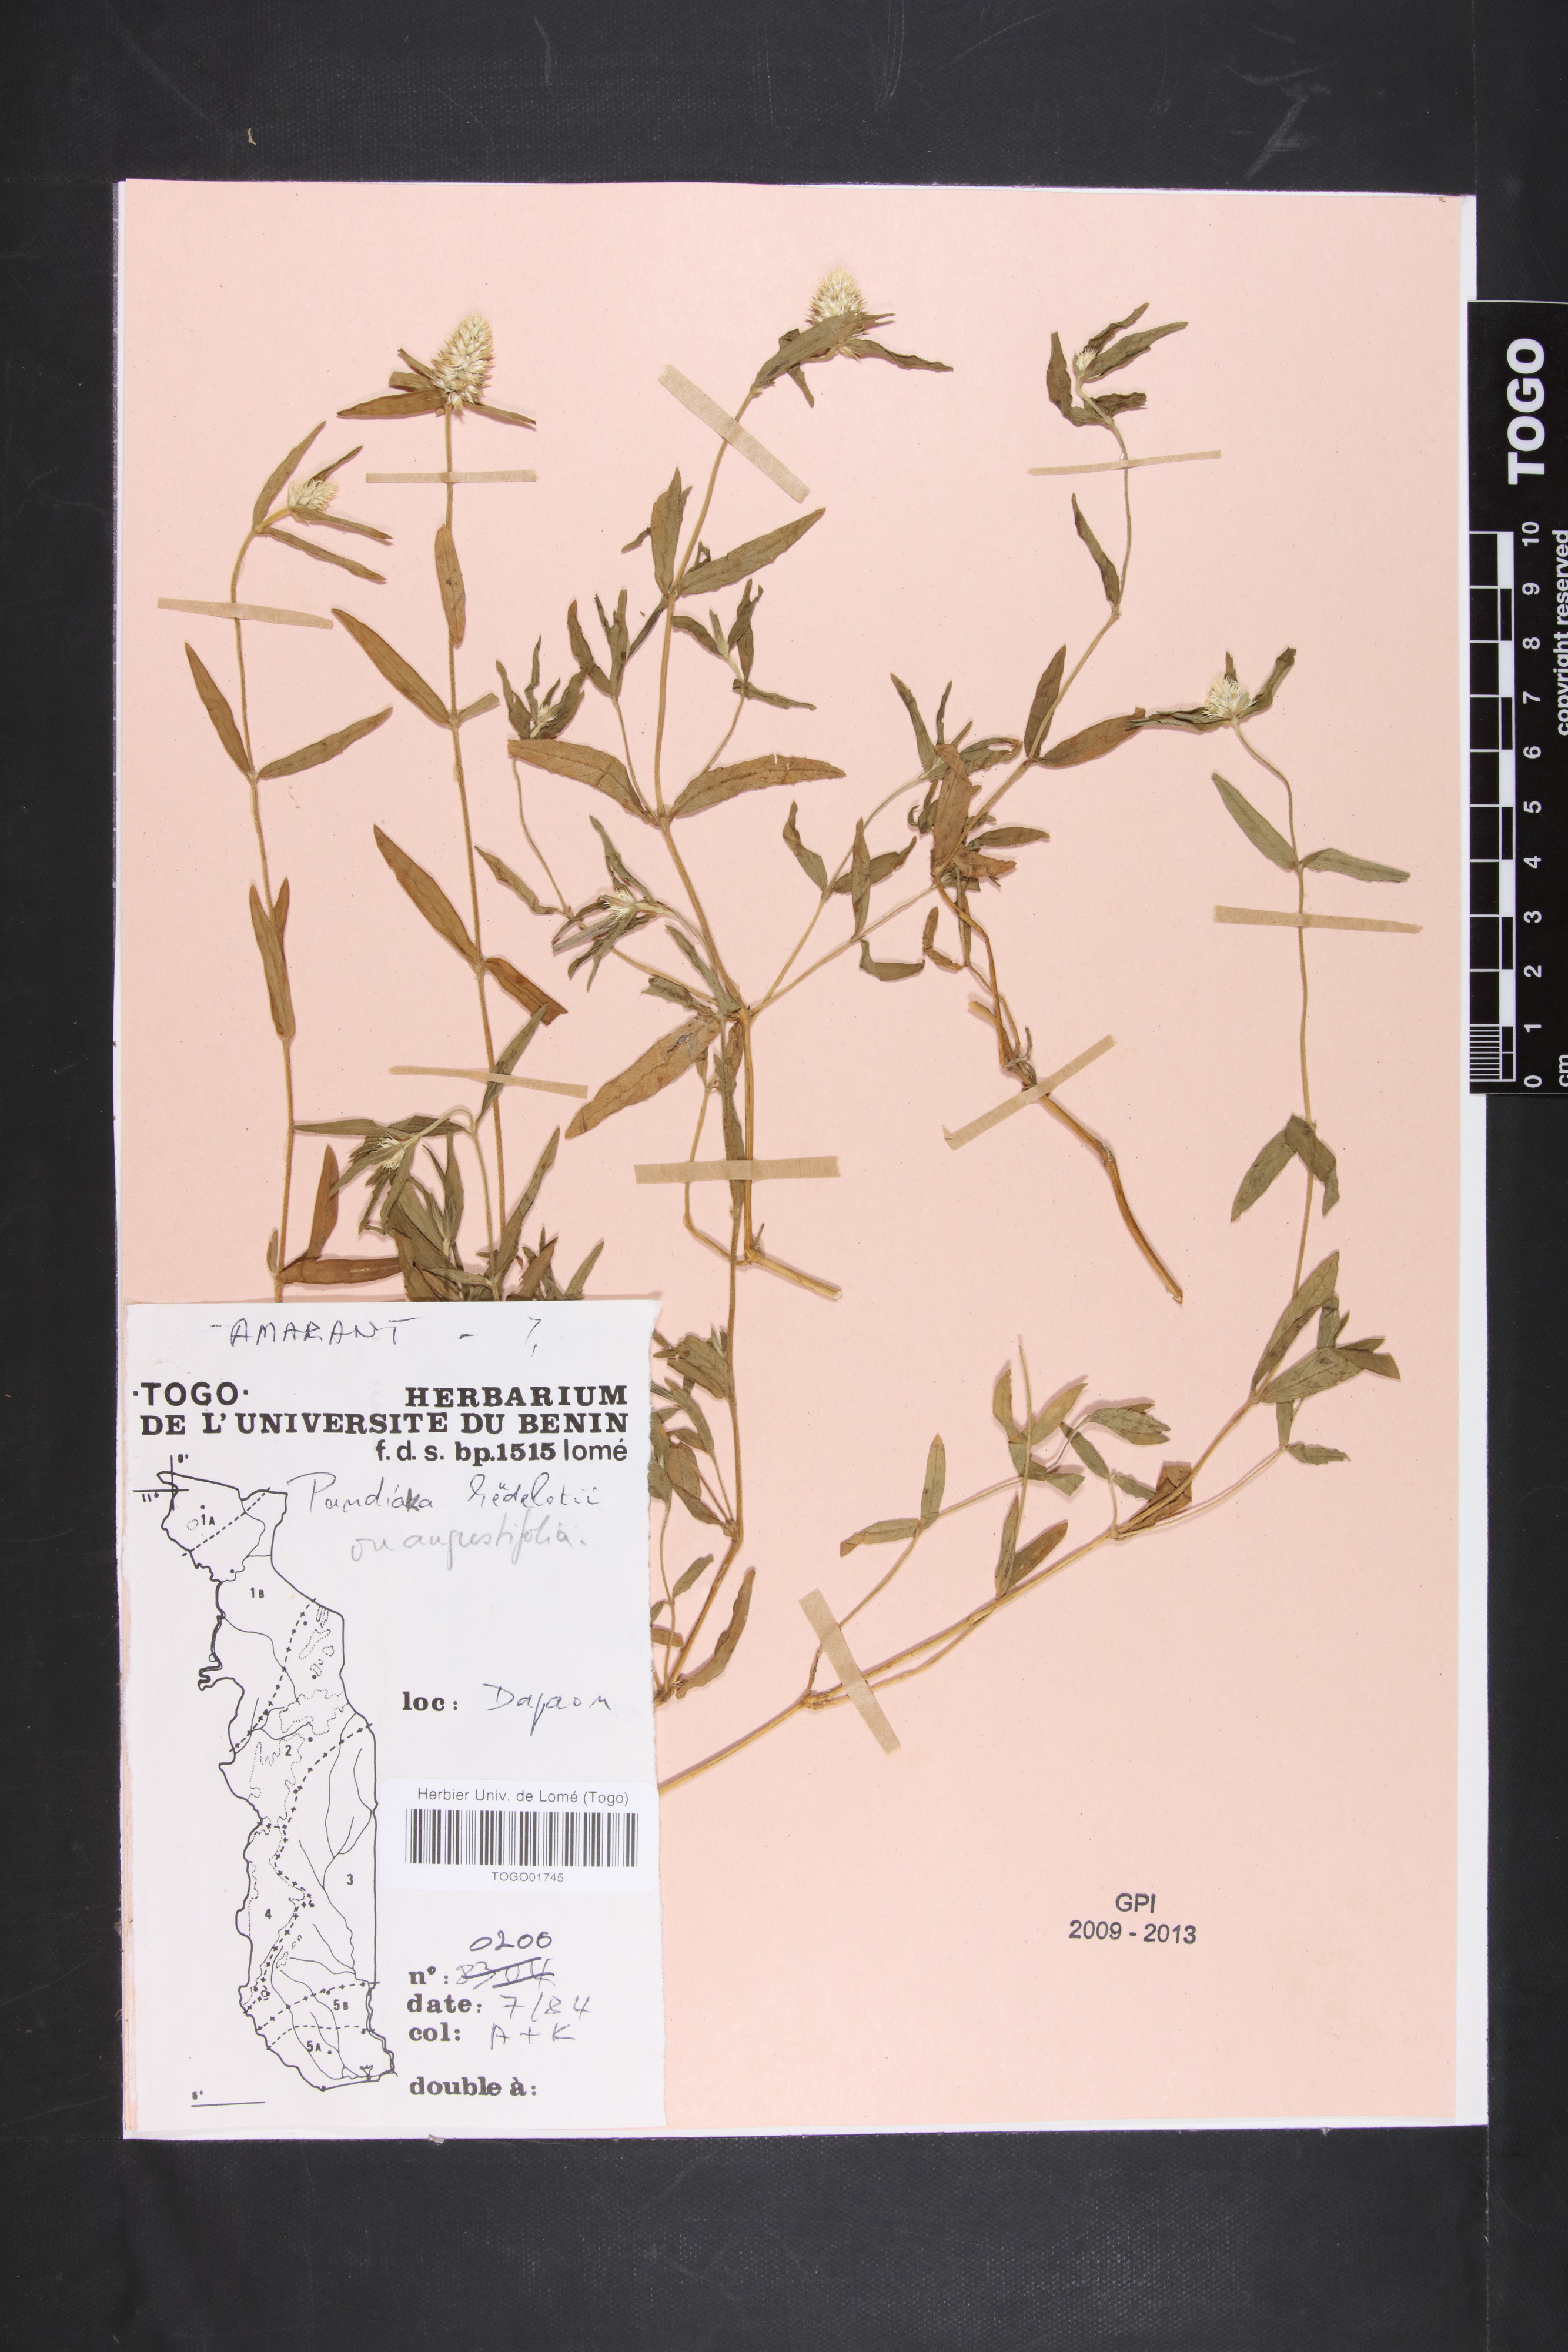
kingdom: Plantae
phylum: Tracheophyta
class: Magnoliopsida
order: Caryophyllales
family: Amaranthaceae
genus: Pandiaka
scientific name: Pandiaka angustifolia
